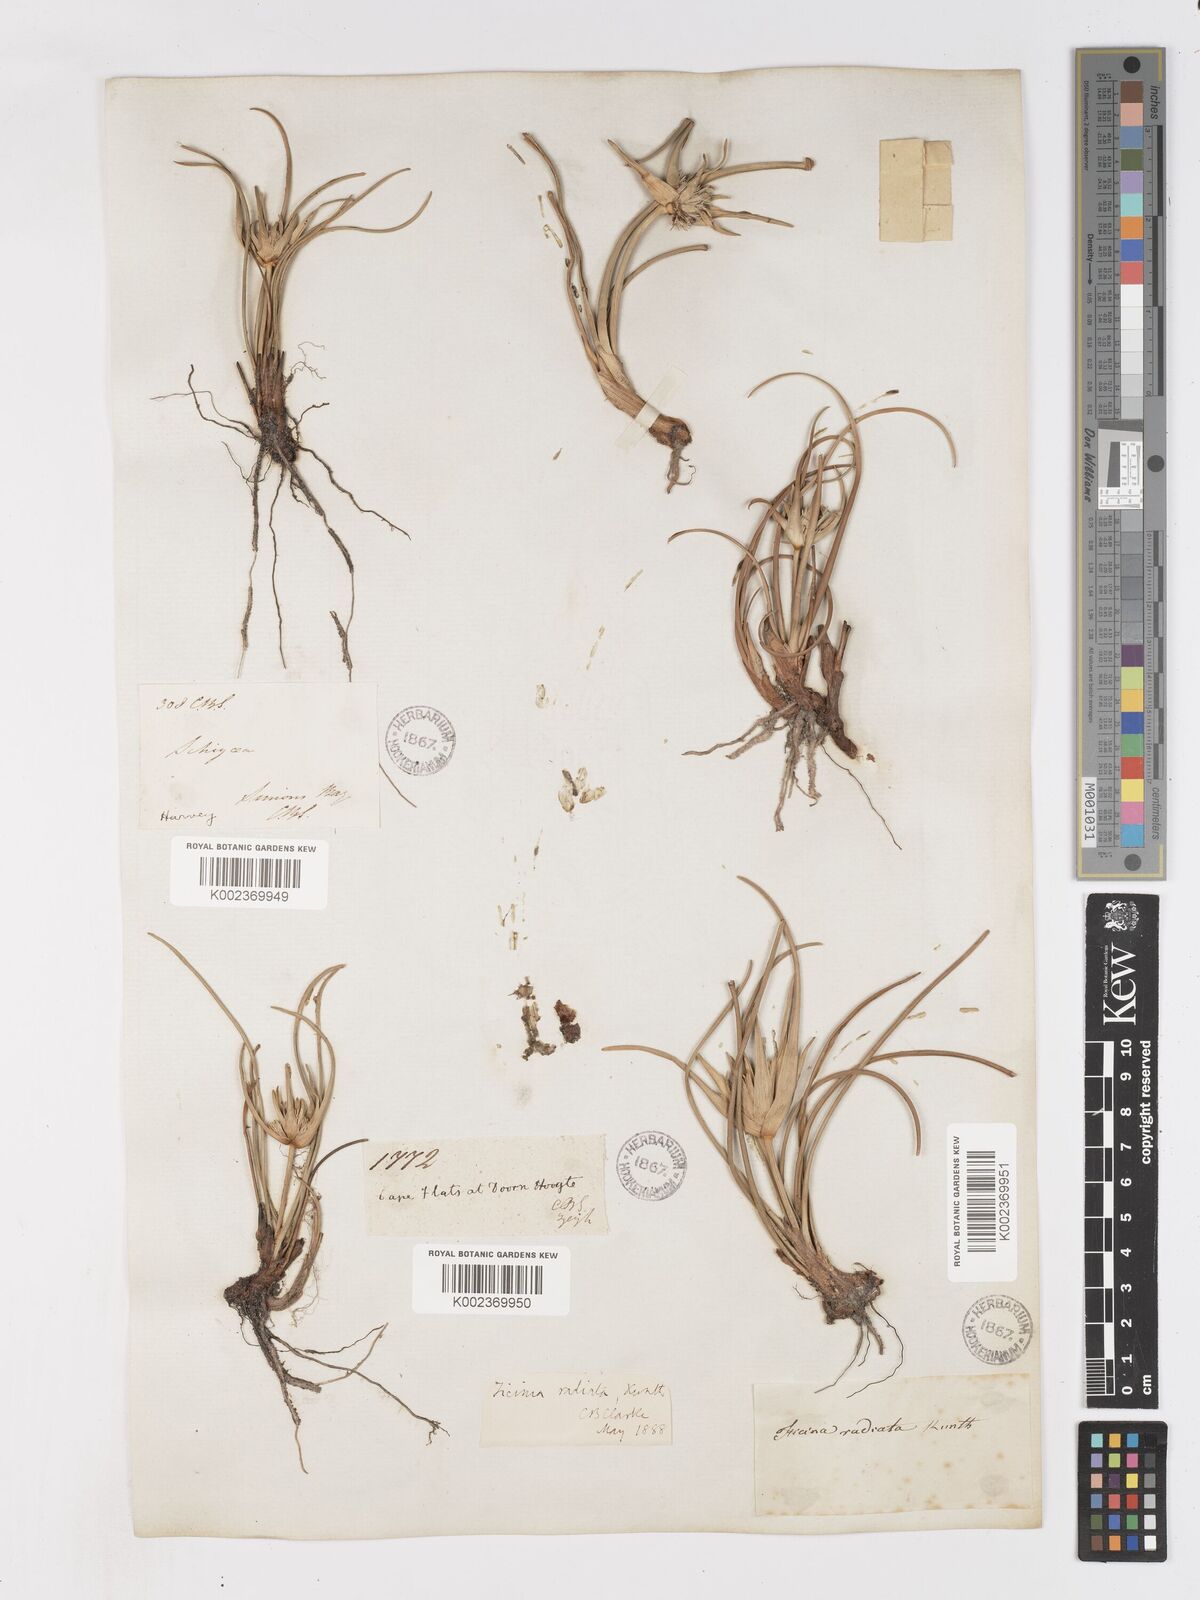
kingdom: Plantae
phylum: Tracheophyta
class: Liliopsida
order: Poales
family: Cyperaceae
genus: Ficinia
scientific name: Ficinia radiata
